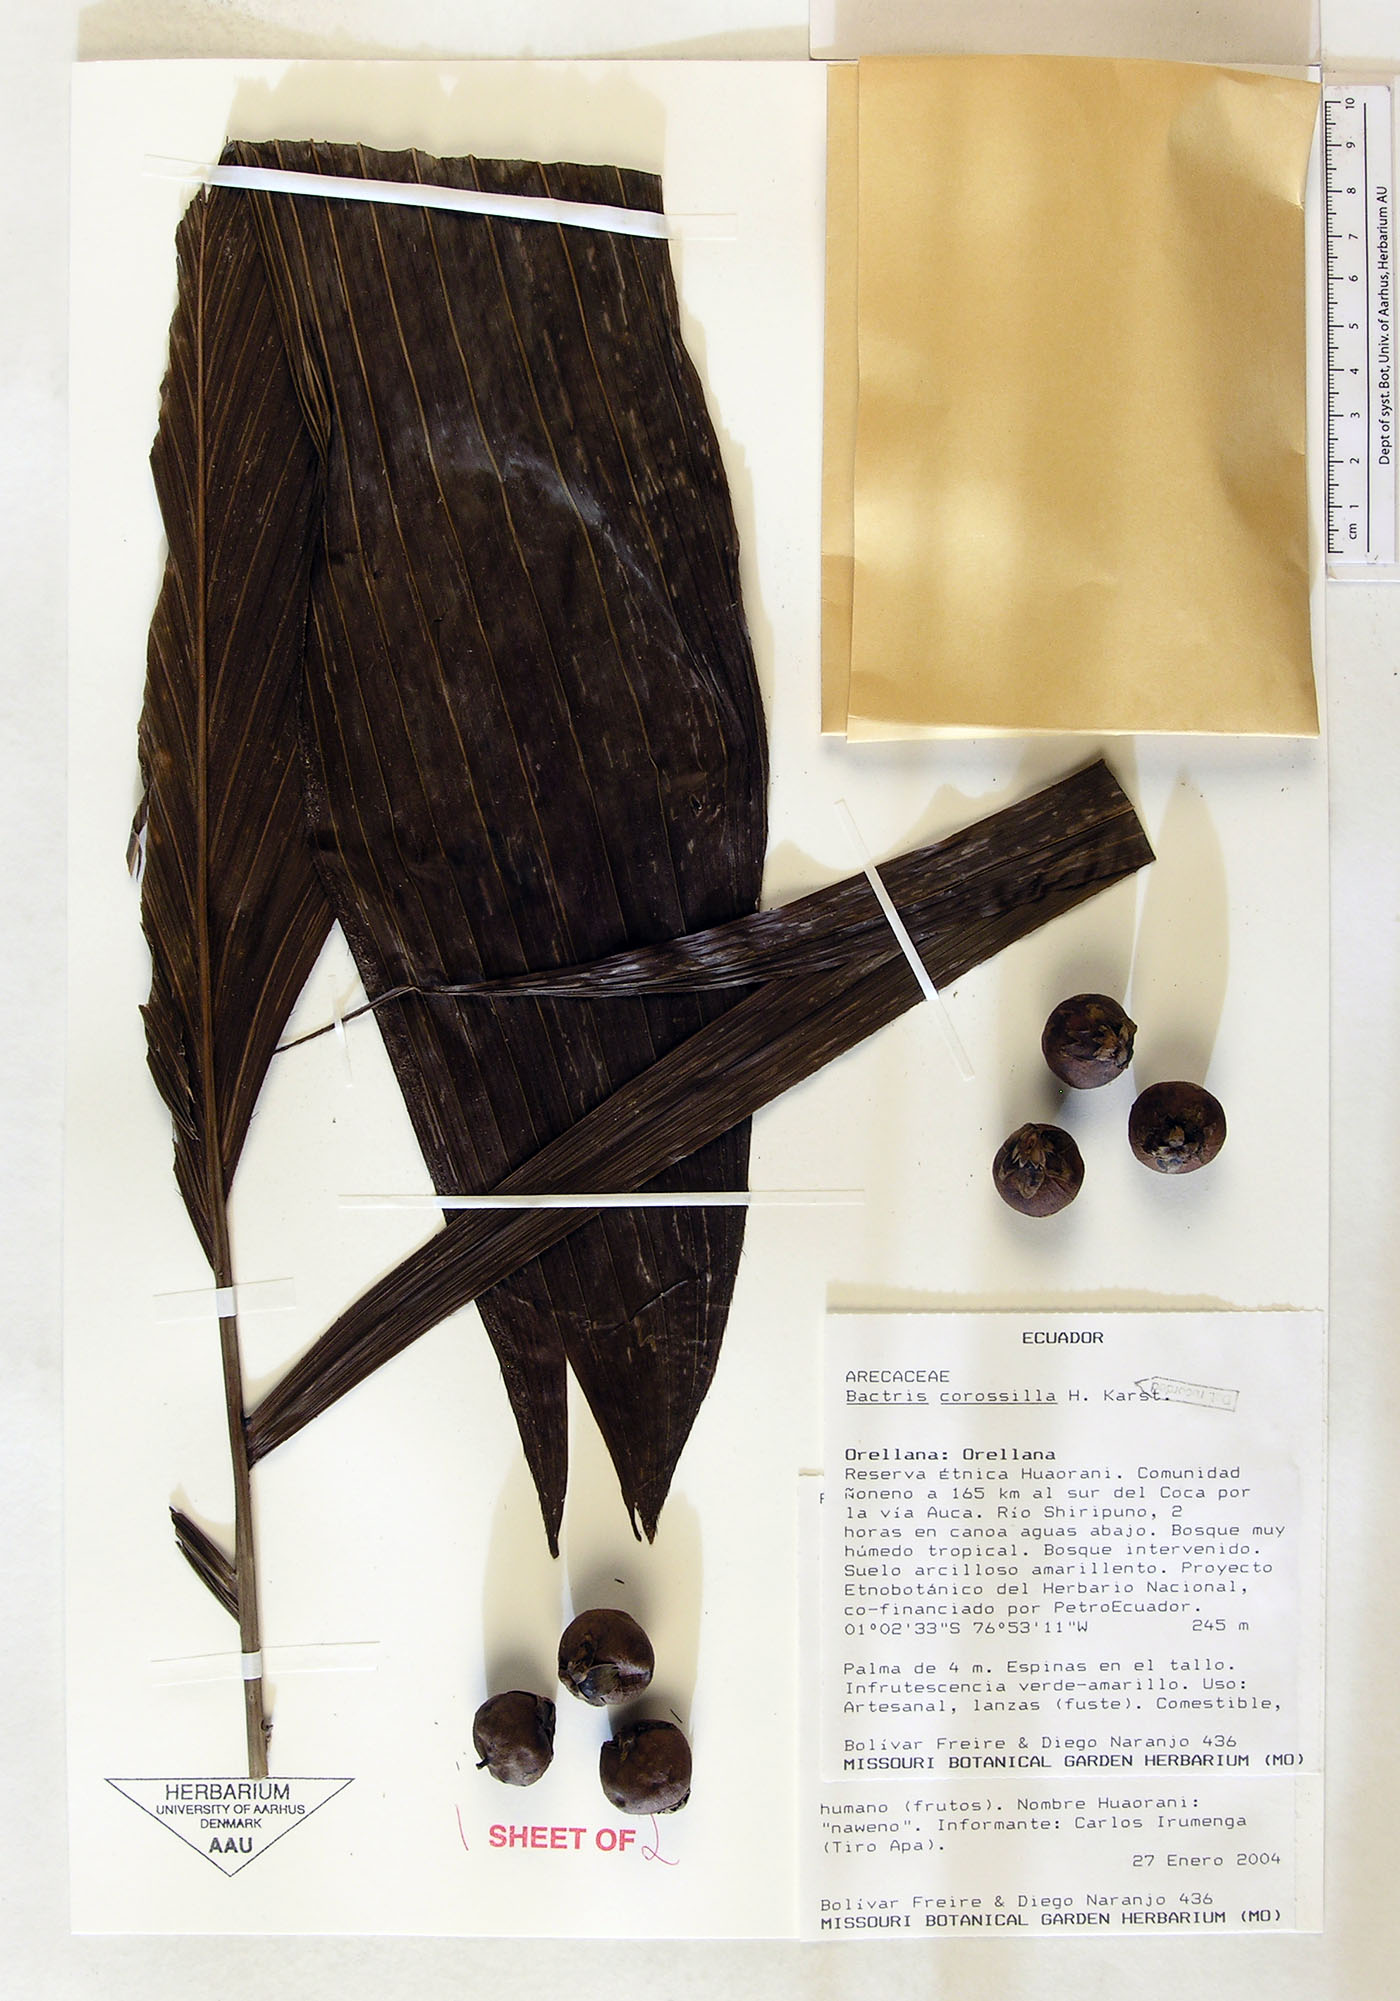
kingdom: Plantae
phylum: Tracheophyta
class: Liliopsida
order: Arecales
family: Arecaceae
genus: Bactris
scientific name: Bactris corossilla
